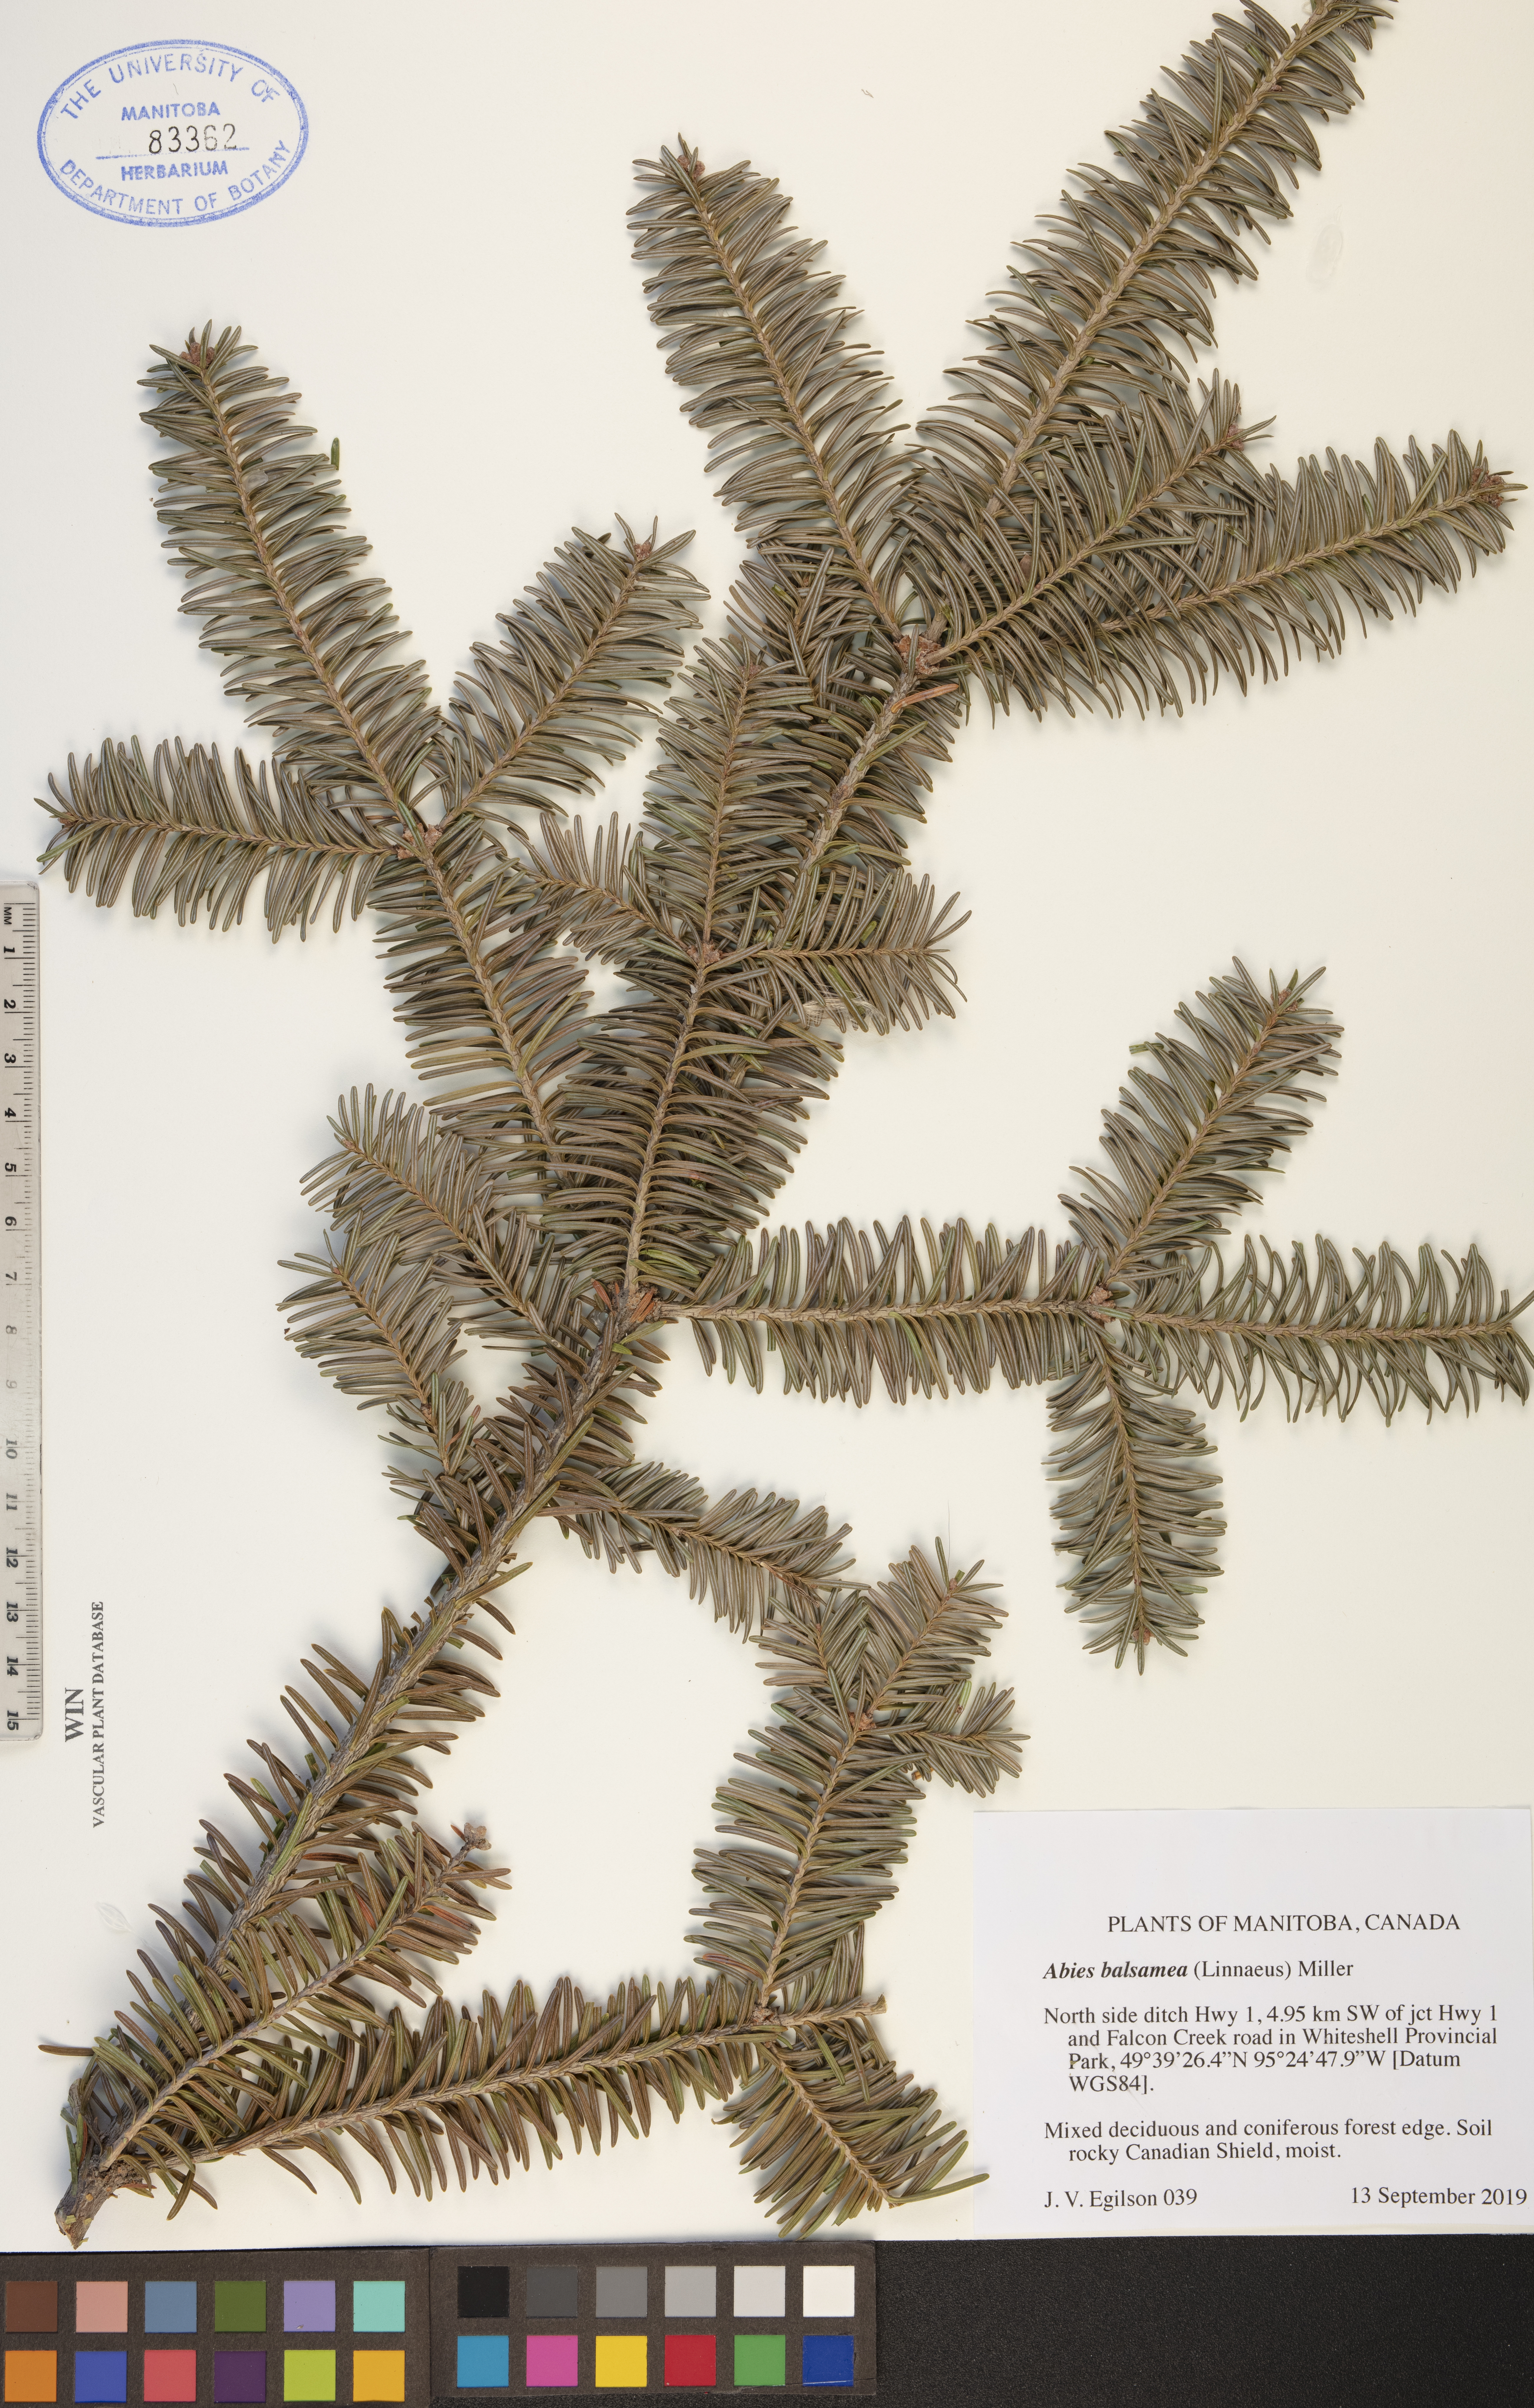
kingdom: Plantae
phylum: Tracheophyta
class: Pinopsida
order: Pinales
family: Pinaceae
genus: Abies
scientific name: Abies balsamea
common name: Balsam fir
